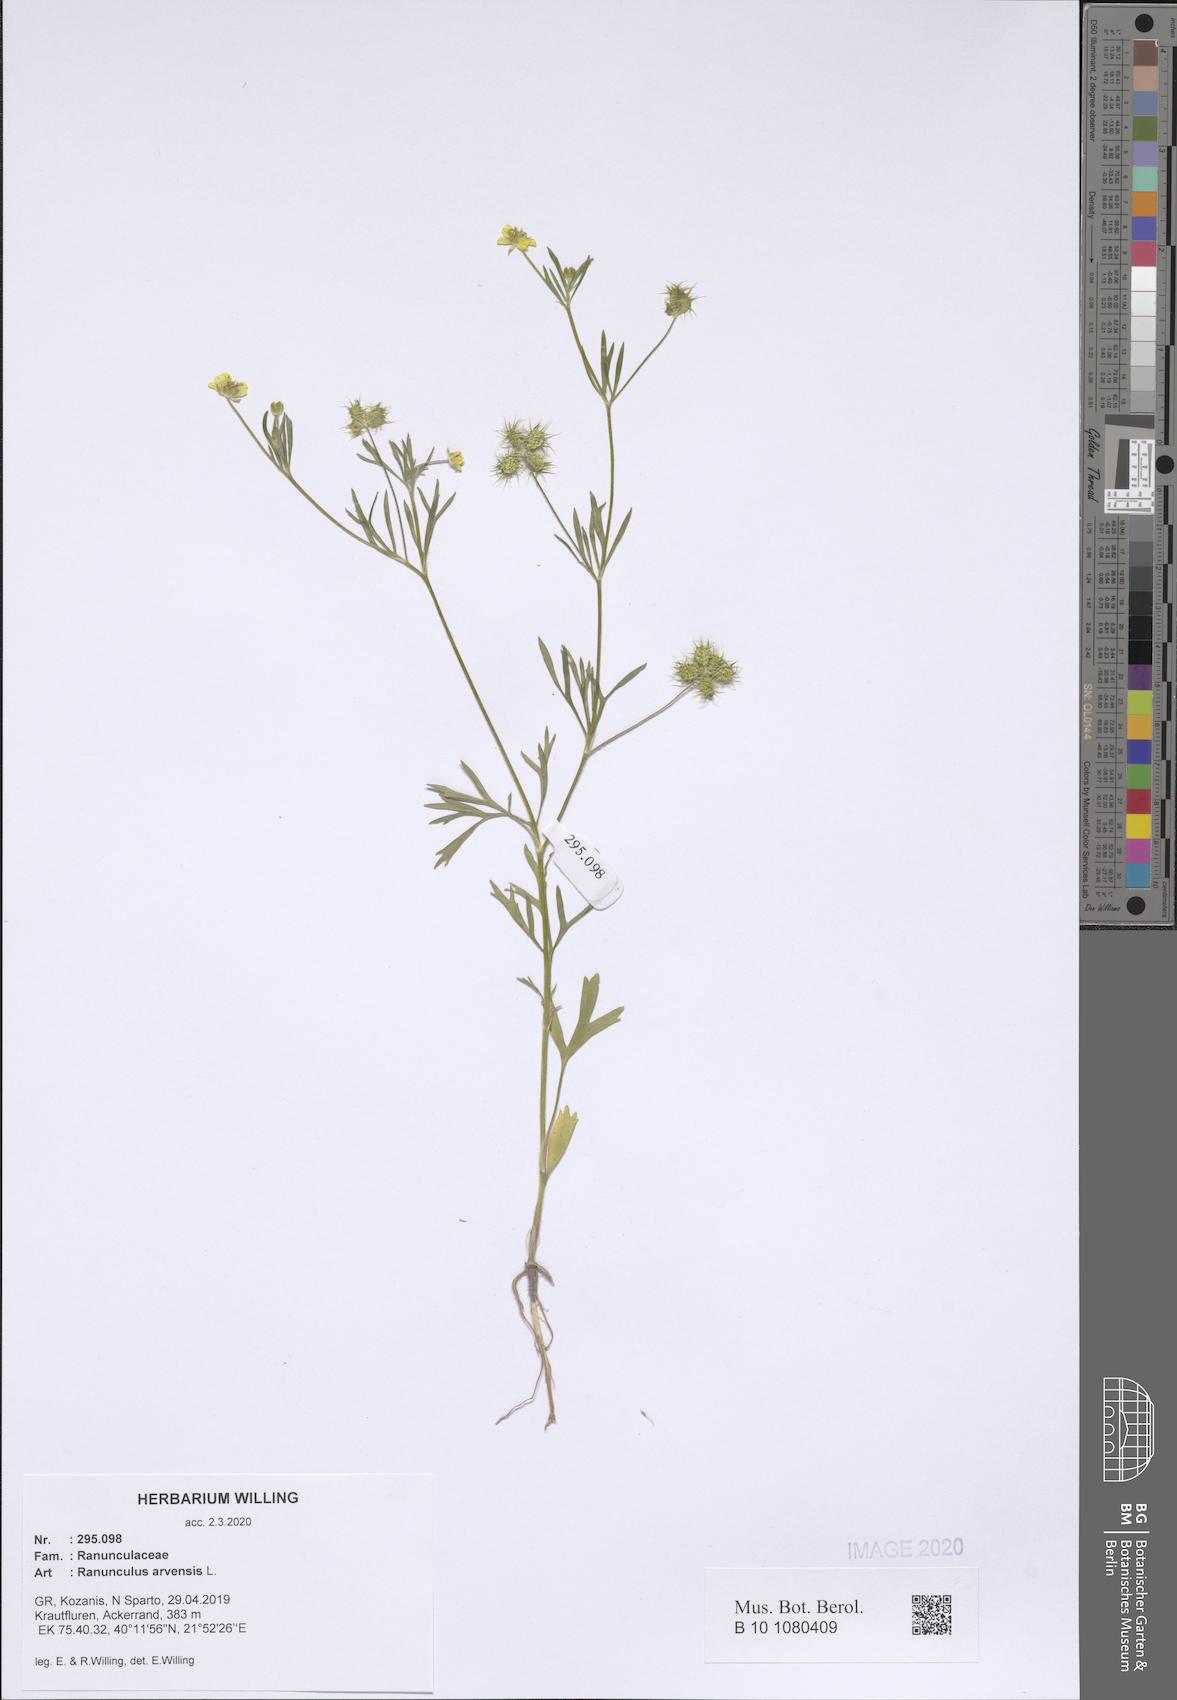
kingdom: Plantae
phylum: Tracheophyta
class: Magnoliopsida
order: Ranunculales
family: Ranunculaceae
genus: Ranunculus
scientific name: Ranunculus arvensis
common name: Corn buttercup
